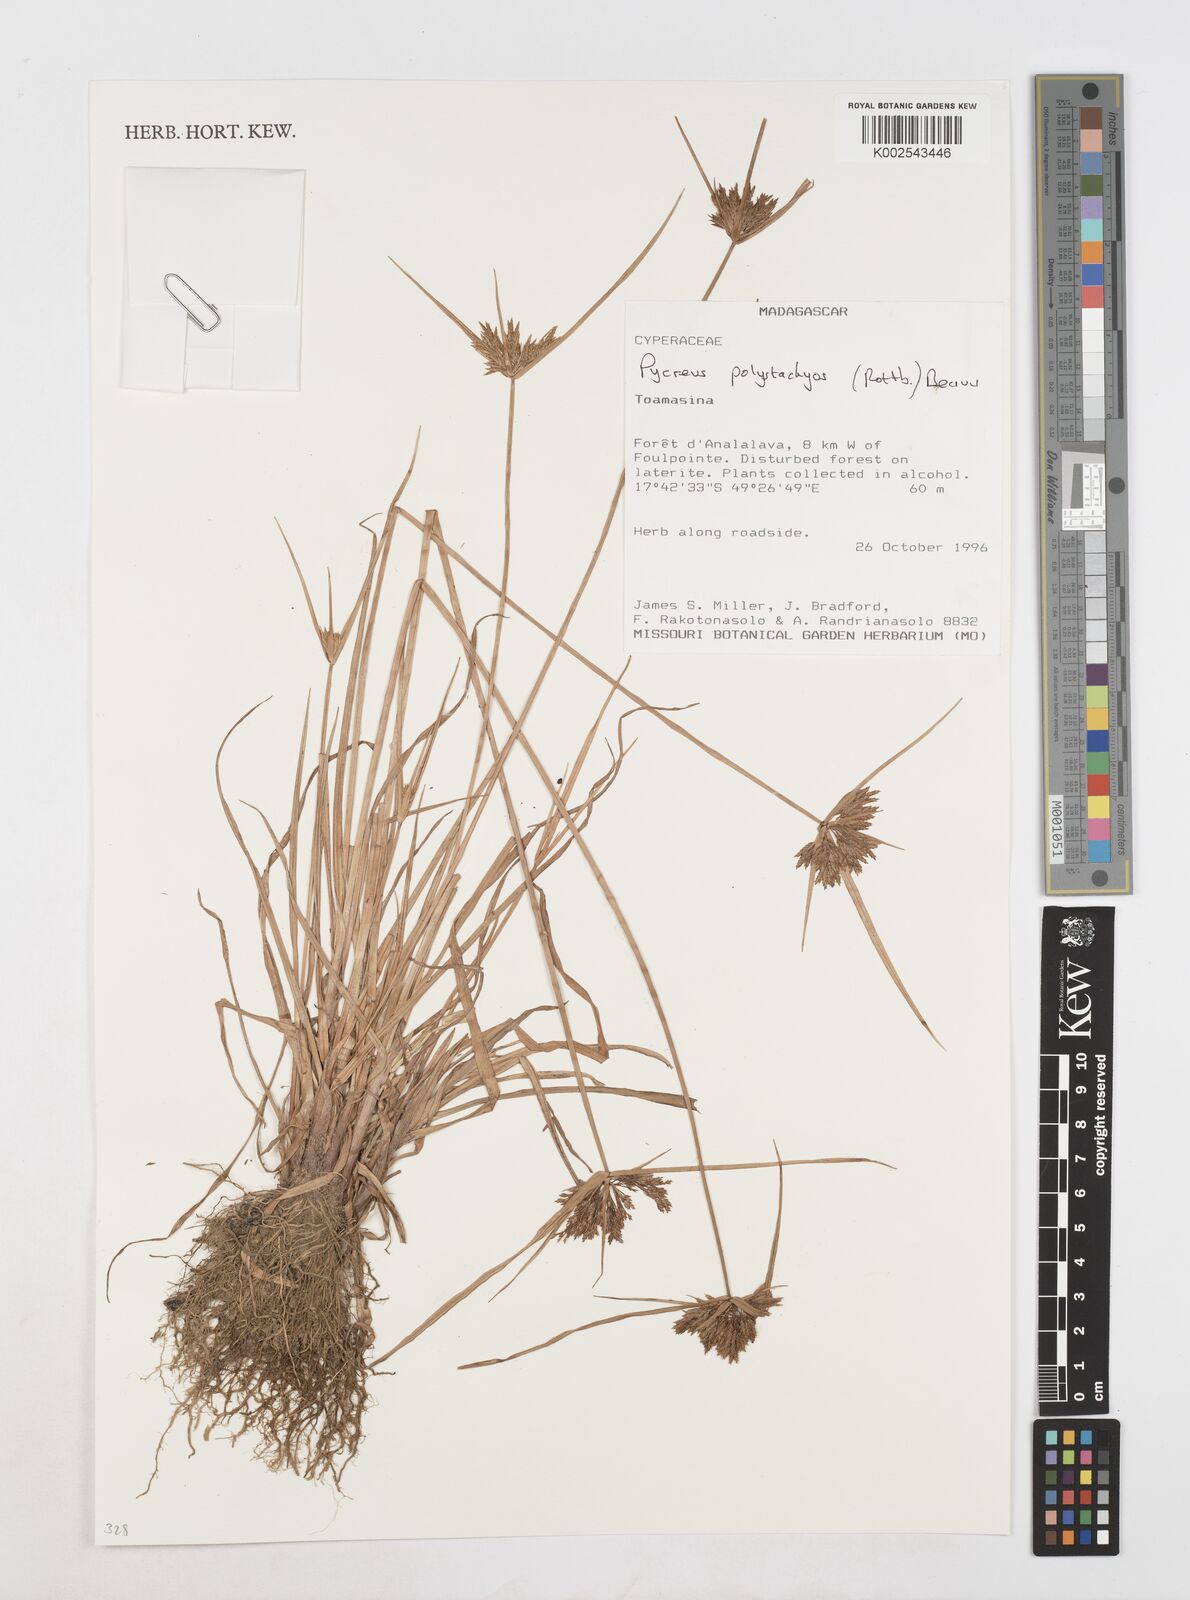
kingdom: Plantae
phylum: Tracheophyta
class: Liliopsida
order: Poales
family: Cyperaceae
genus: Cyperus
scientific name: Cyperus polystachyos
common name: Bunchy flat sedge
